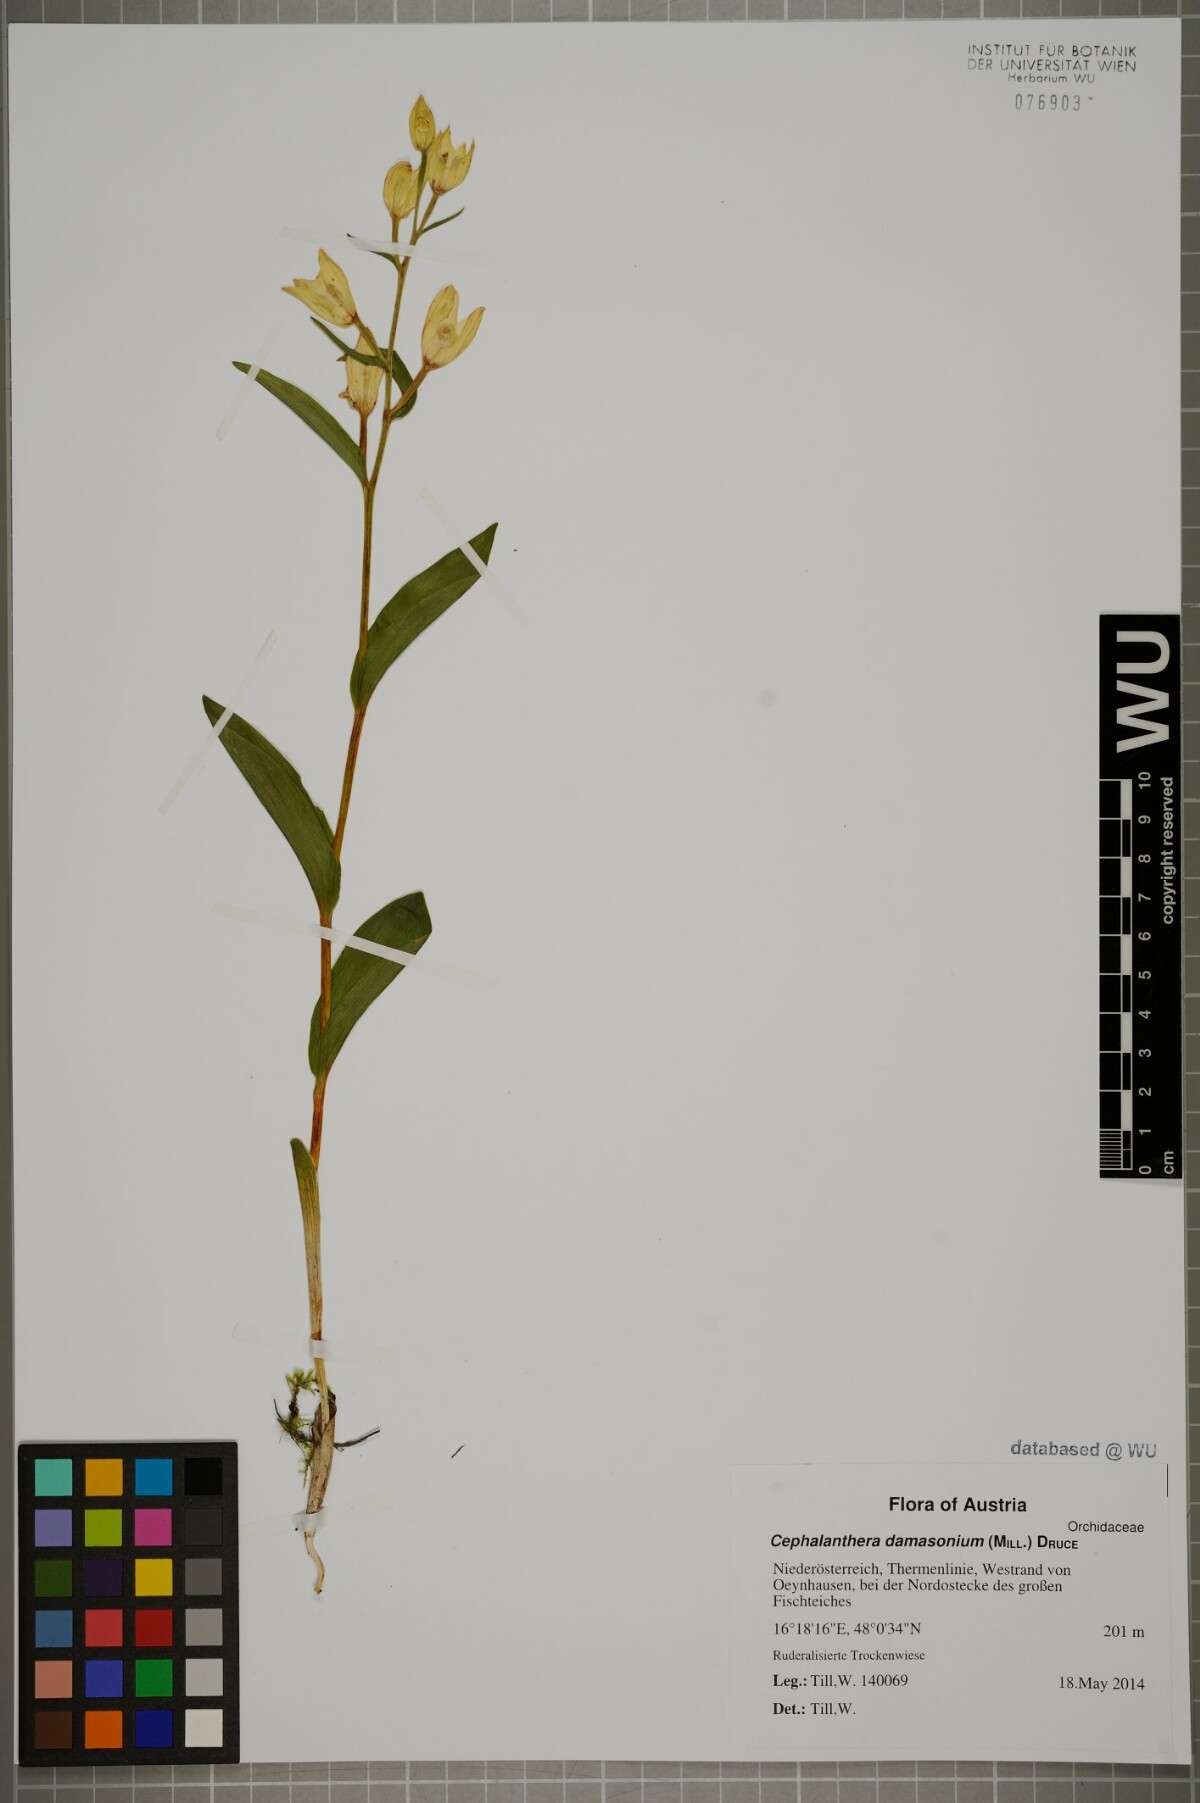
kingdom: Plantae
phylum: Tracheophyta
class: Liliopsida
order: Asparagales
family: Orchidaceae
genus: Cephalanthera
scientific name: Cephalanthera damasonium
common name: White helleborine
